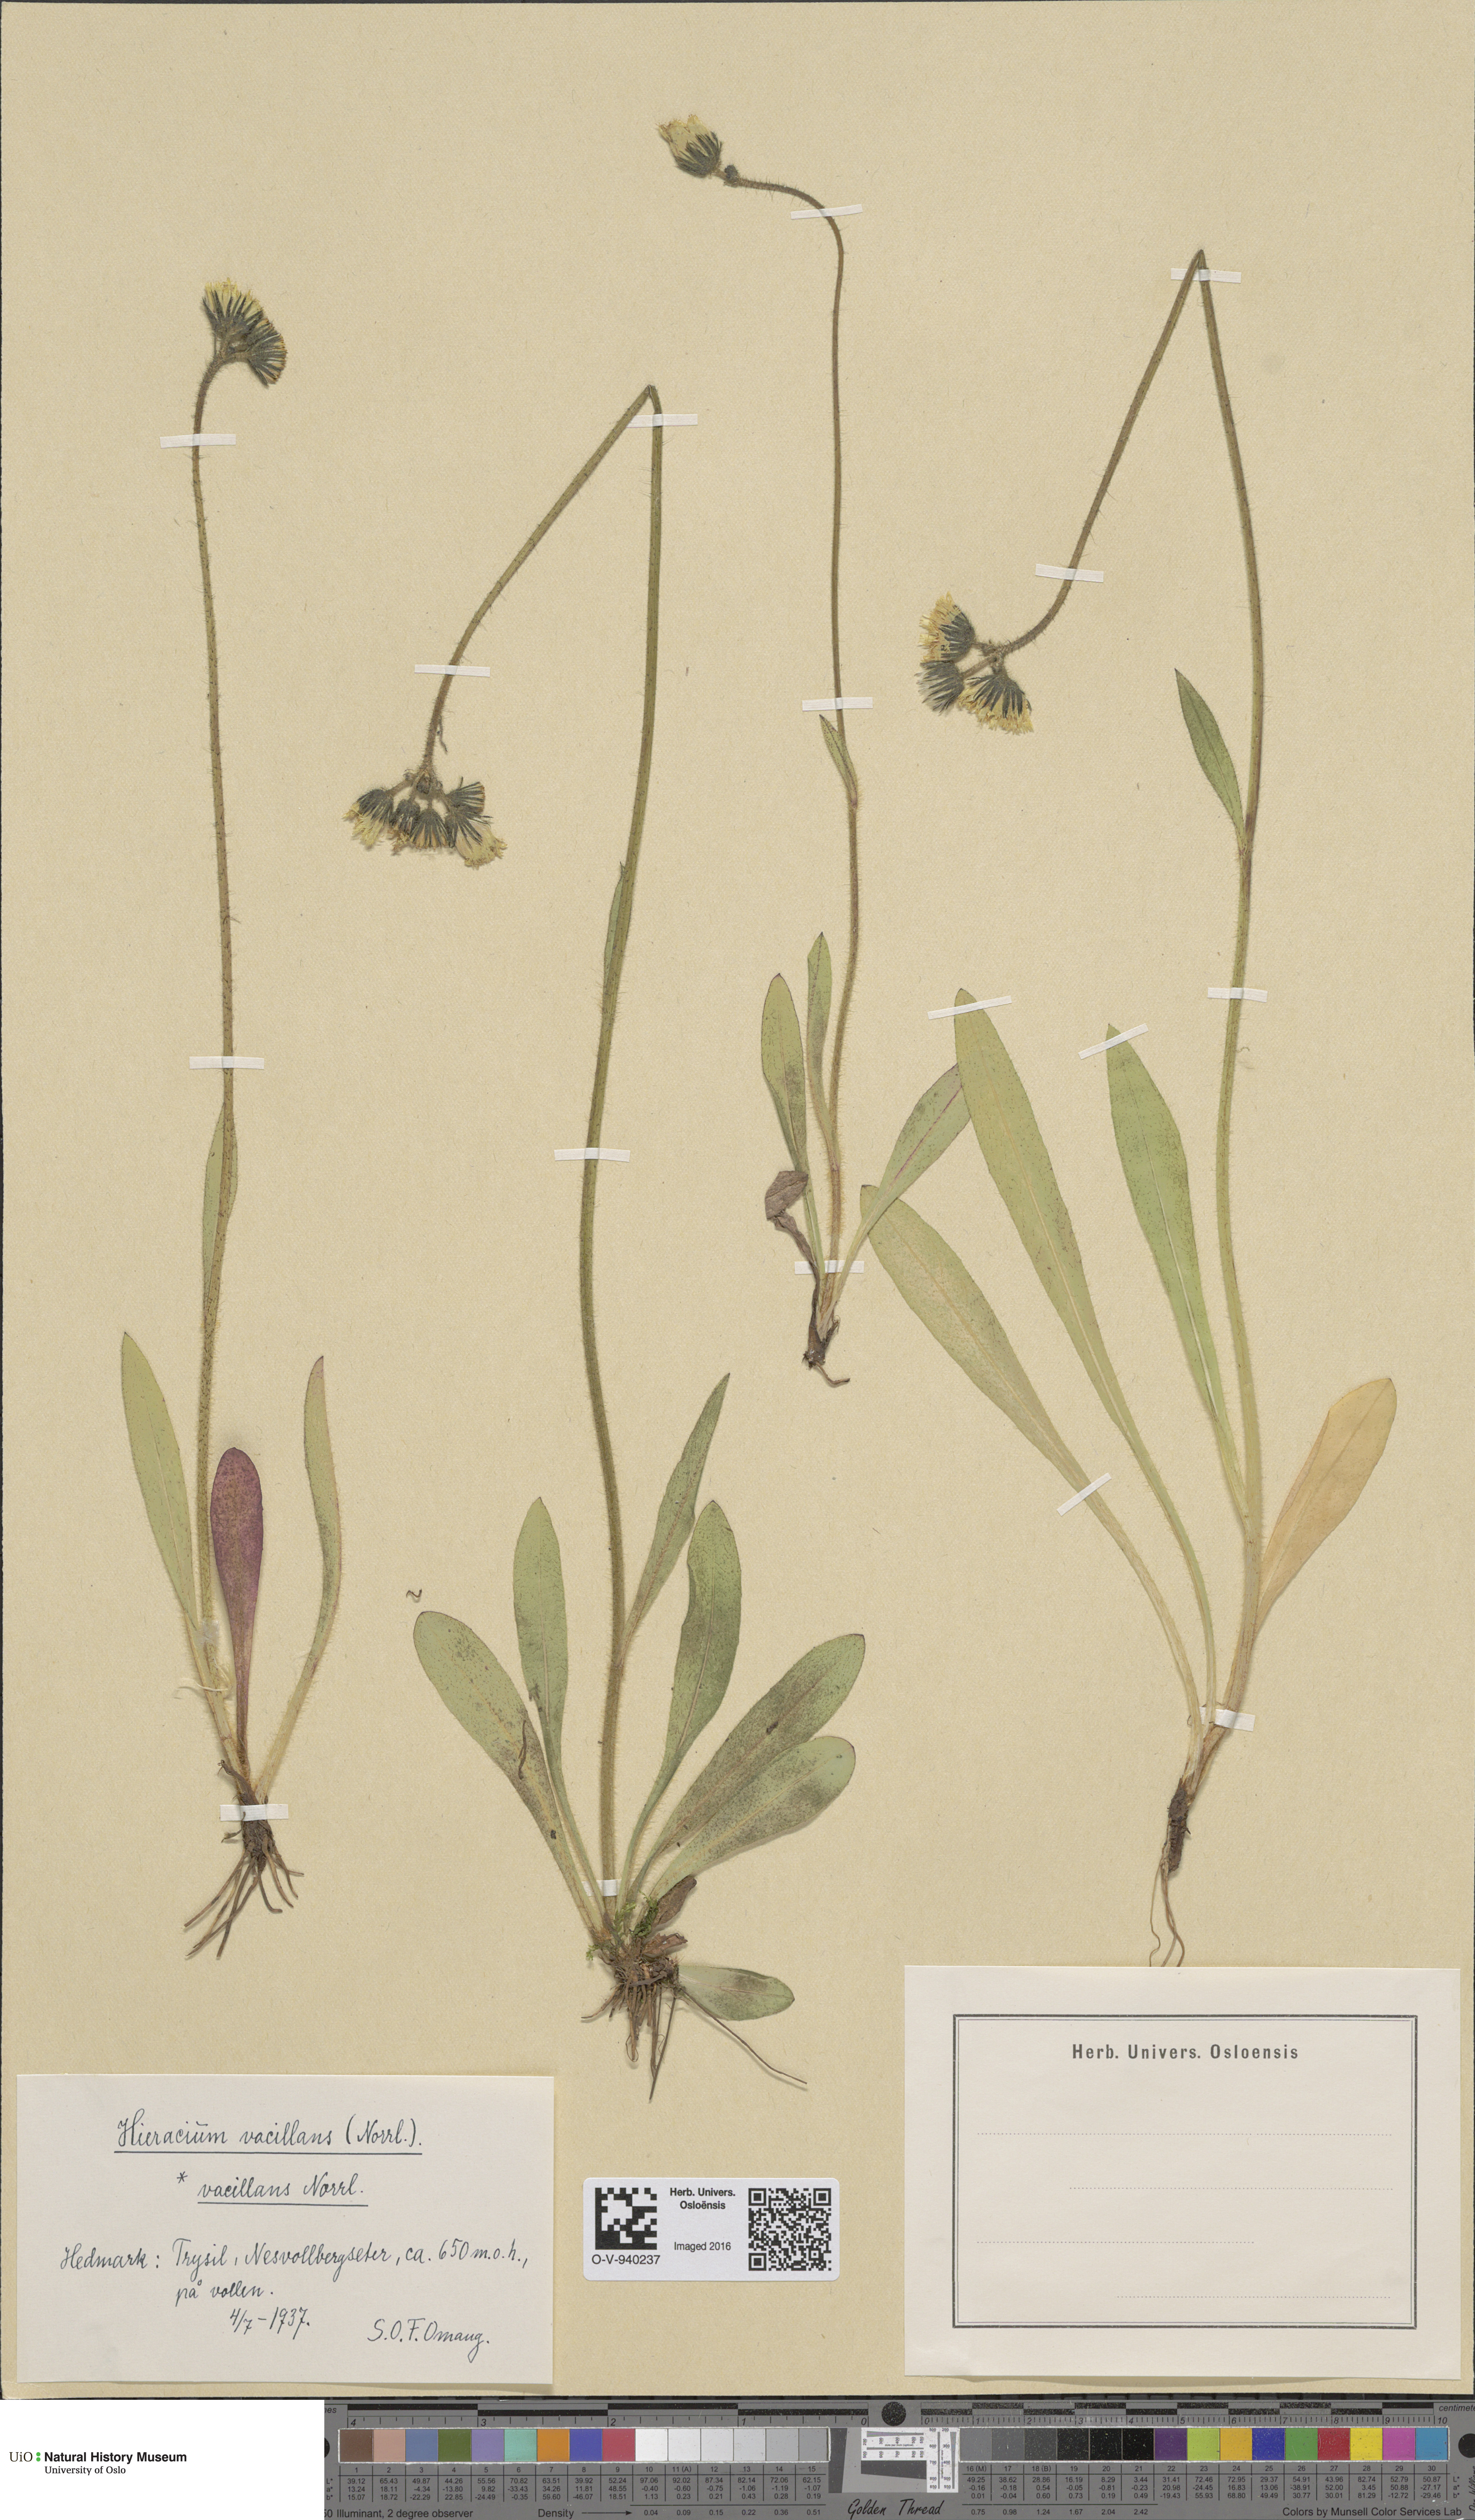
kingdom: Plantae
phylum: Tracheophyta
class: Magnoliopsida
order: Asterales
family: Asteraceae
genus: Pilosella
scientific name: Pilosella glomerata
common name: Queen devil hawkweed
